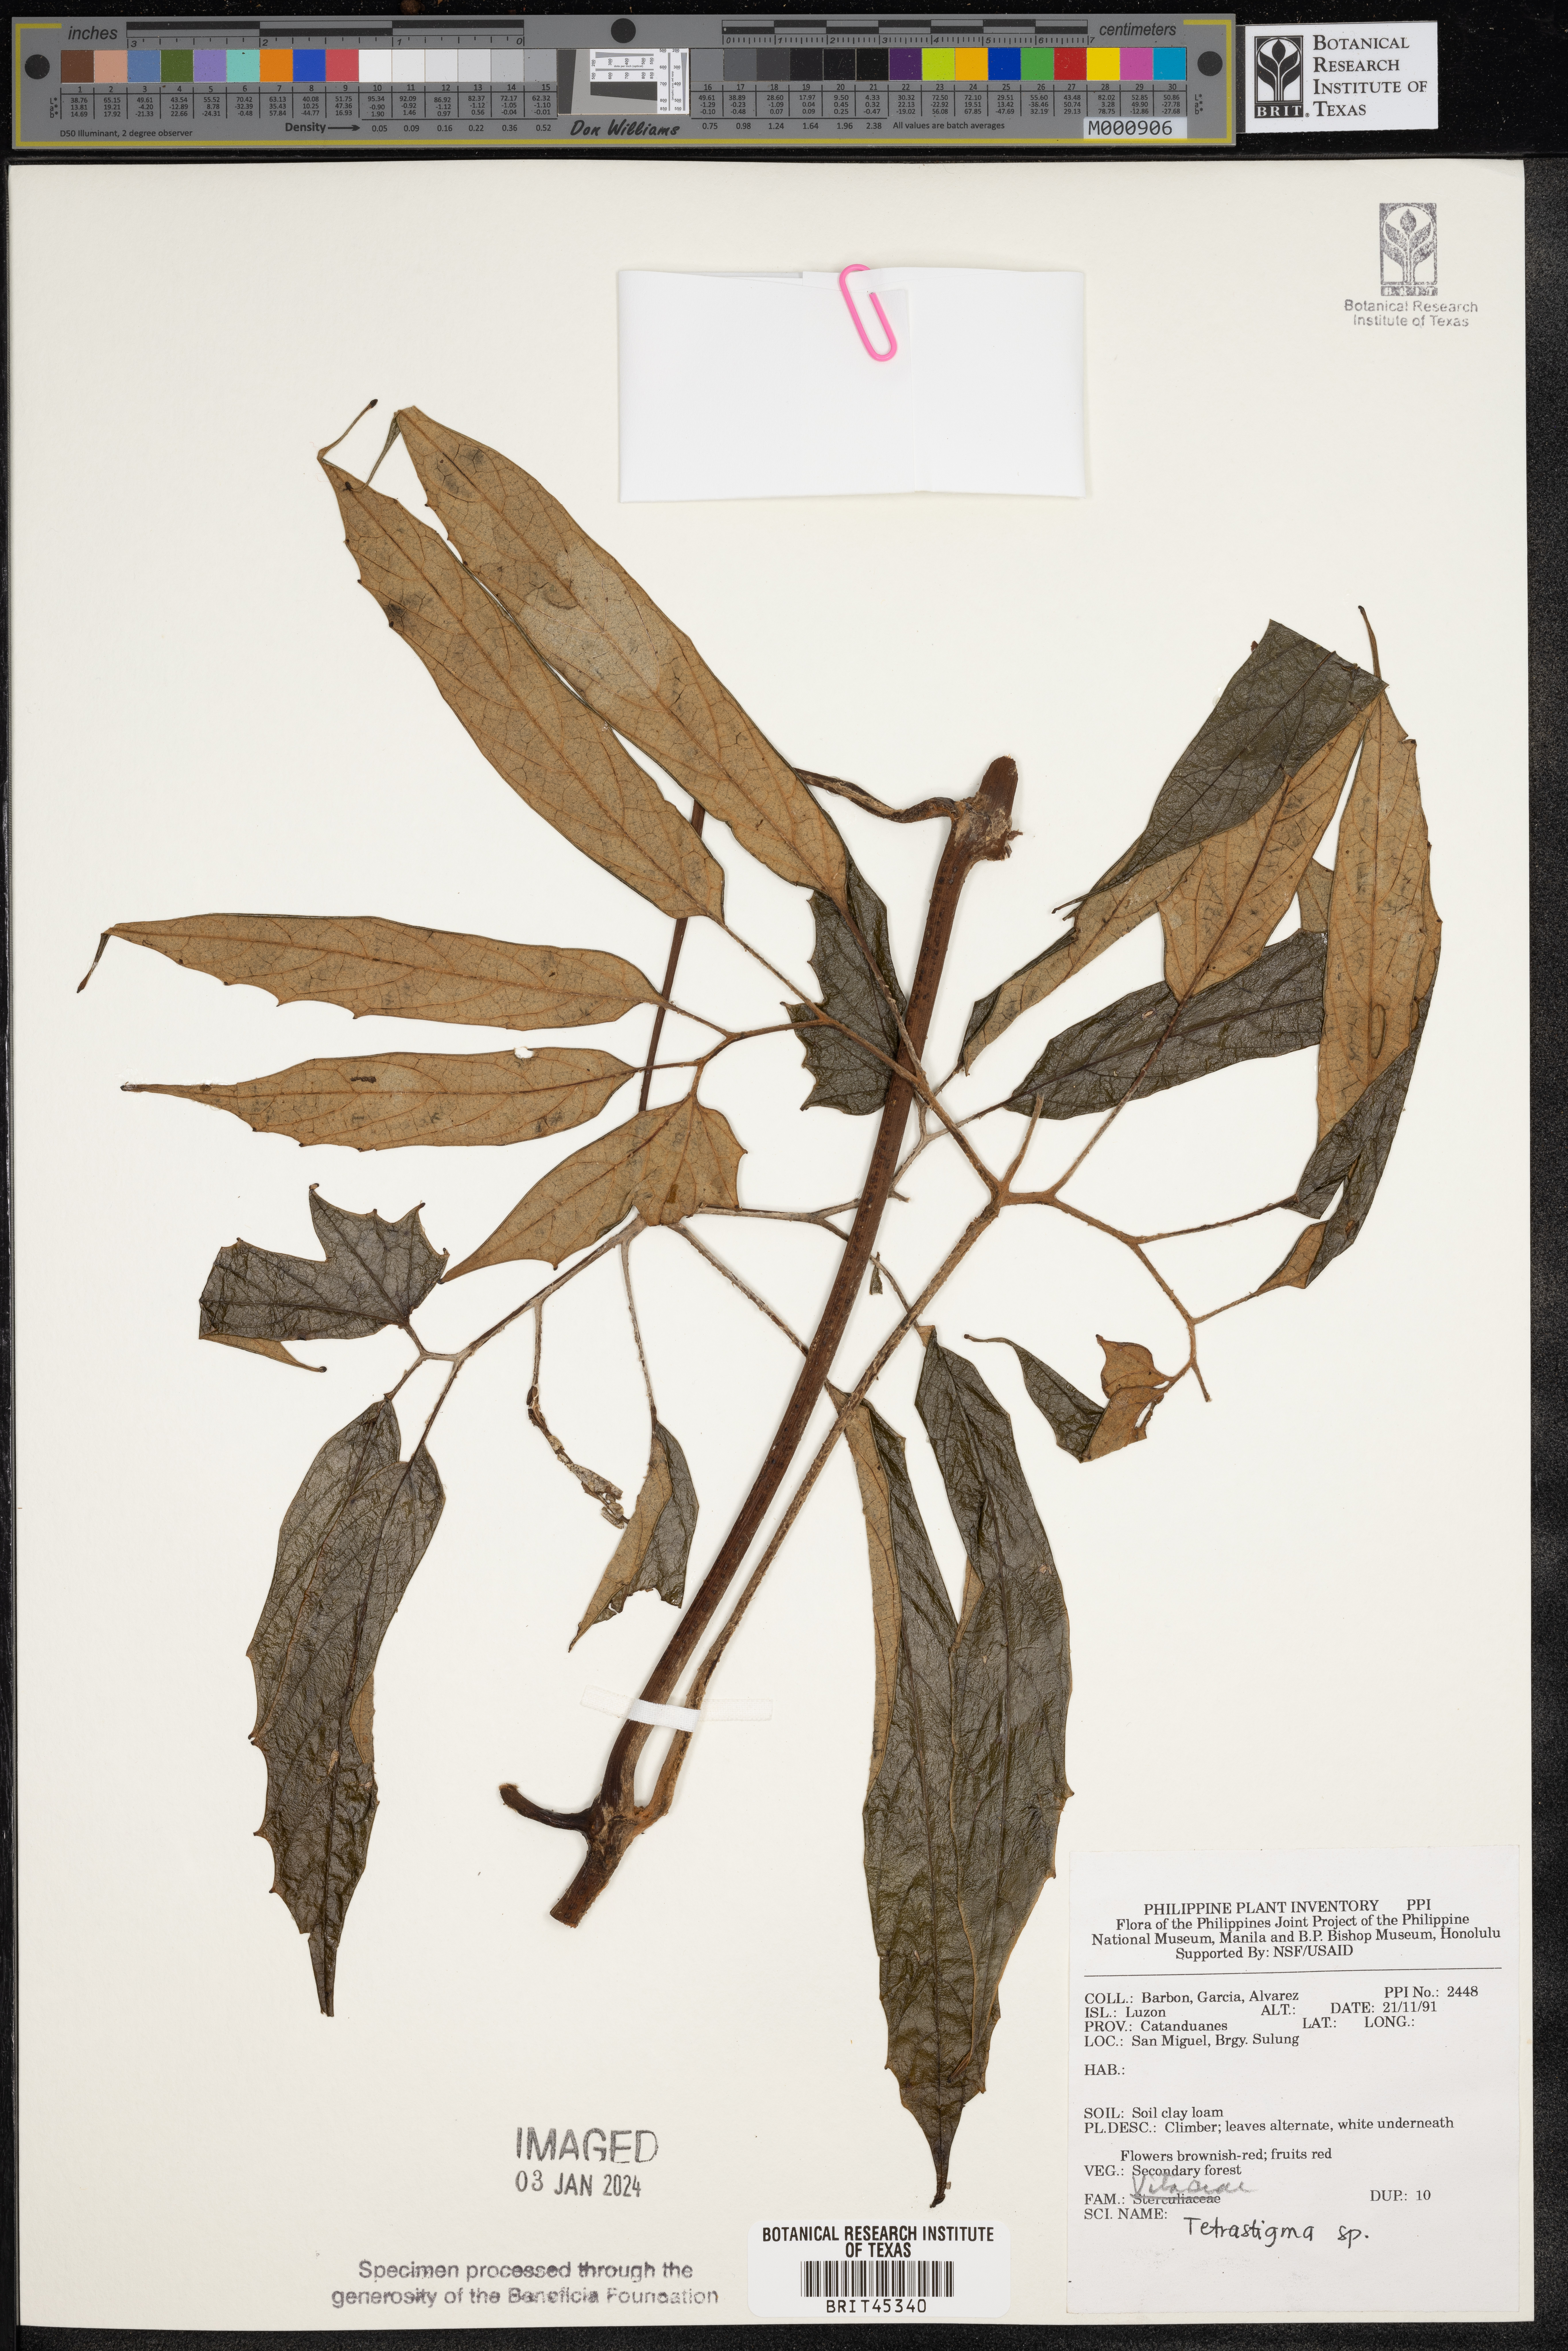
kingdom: Plantae
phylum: Tracheophyta
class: Magnoliopsida
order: Vitales
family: Vitaceae
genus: Tetrastigma
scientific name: Tetrastigma
